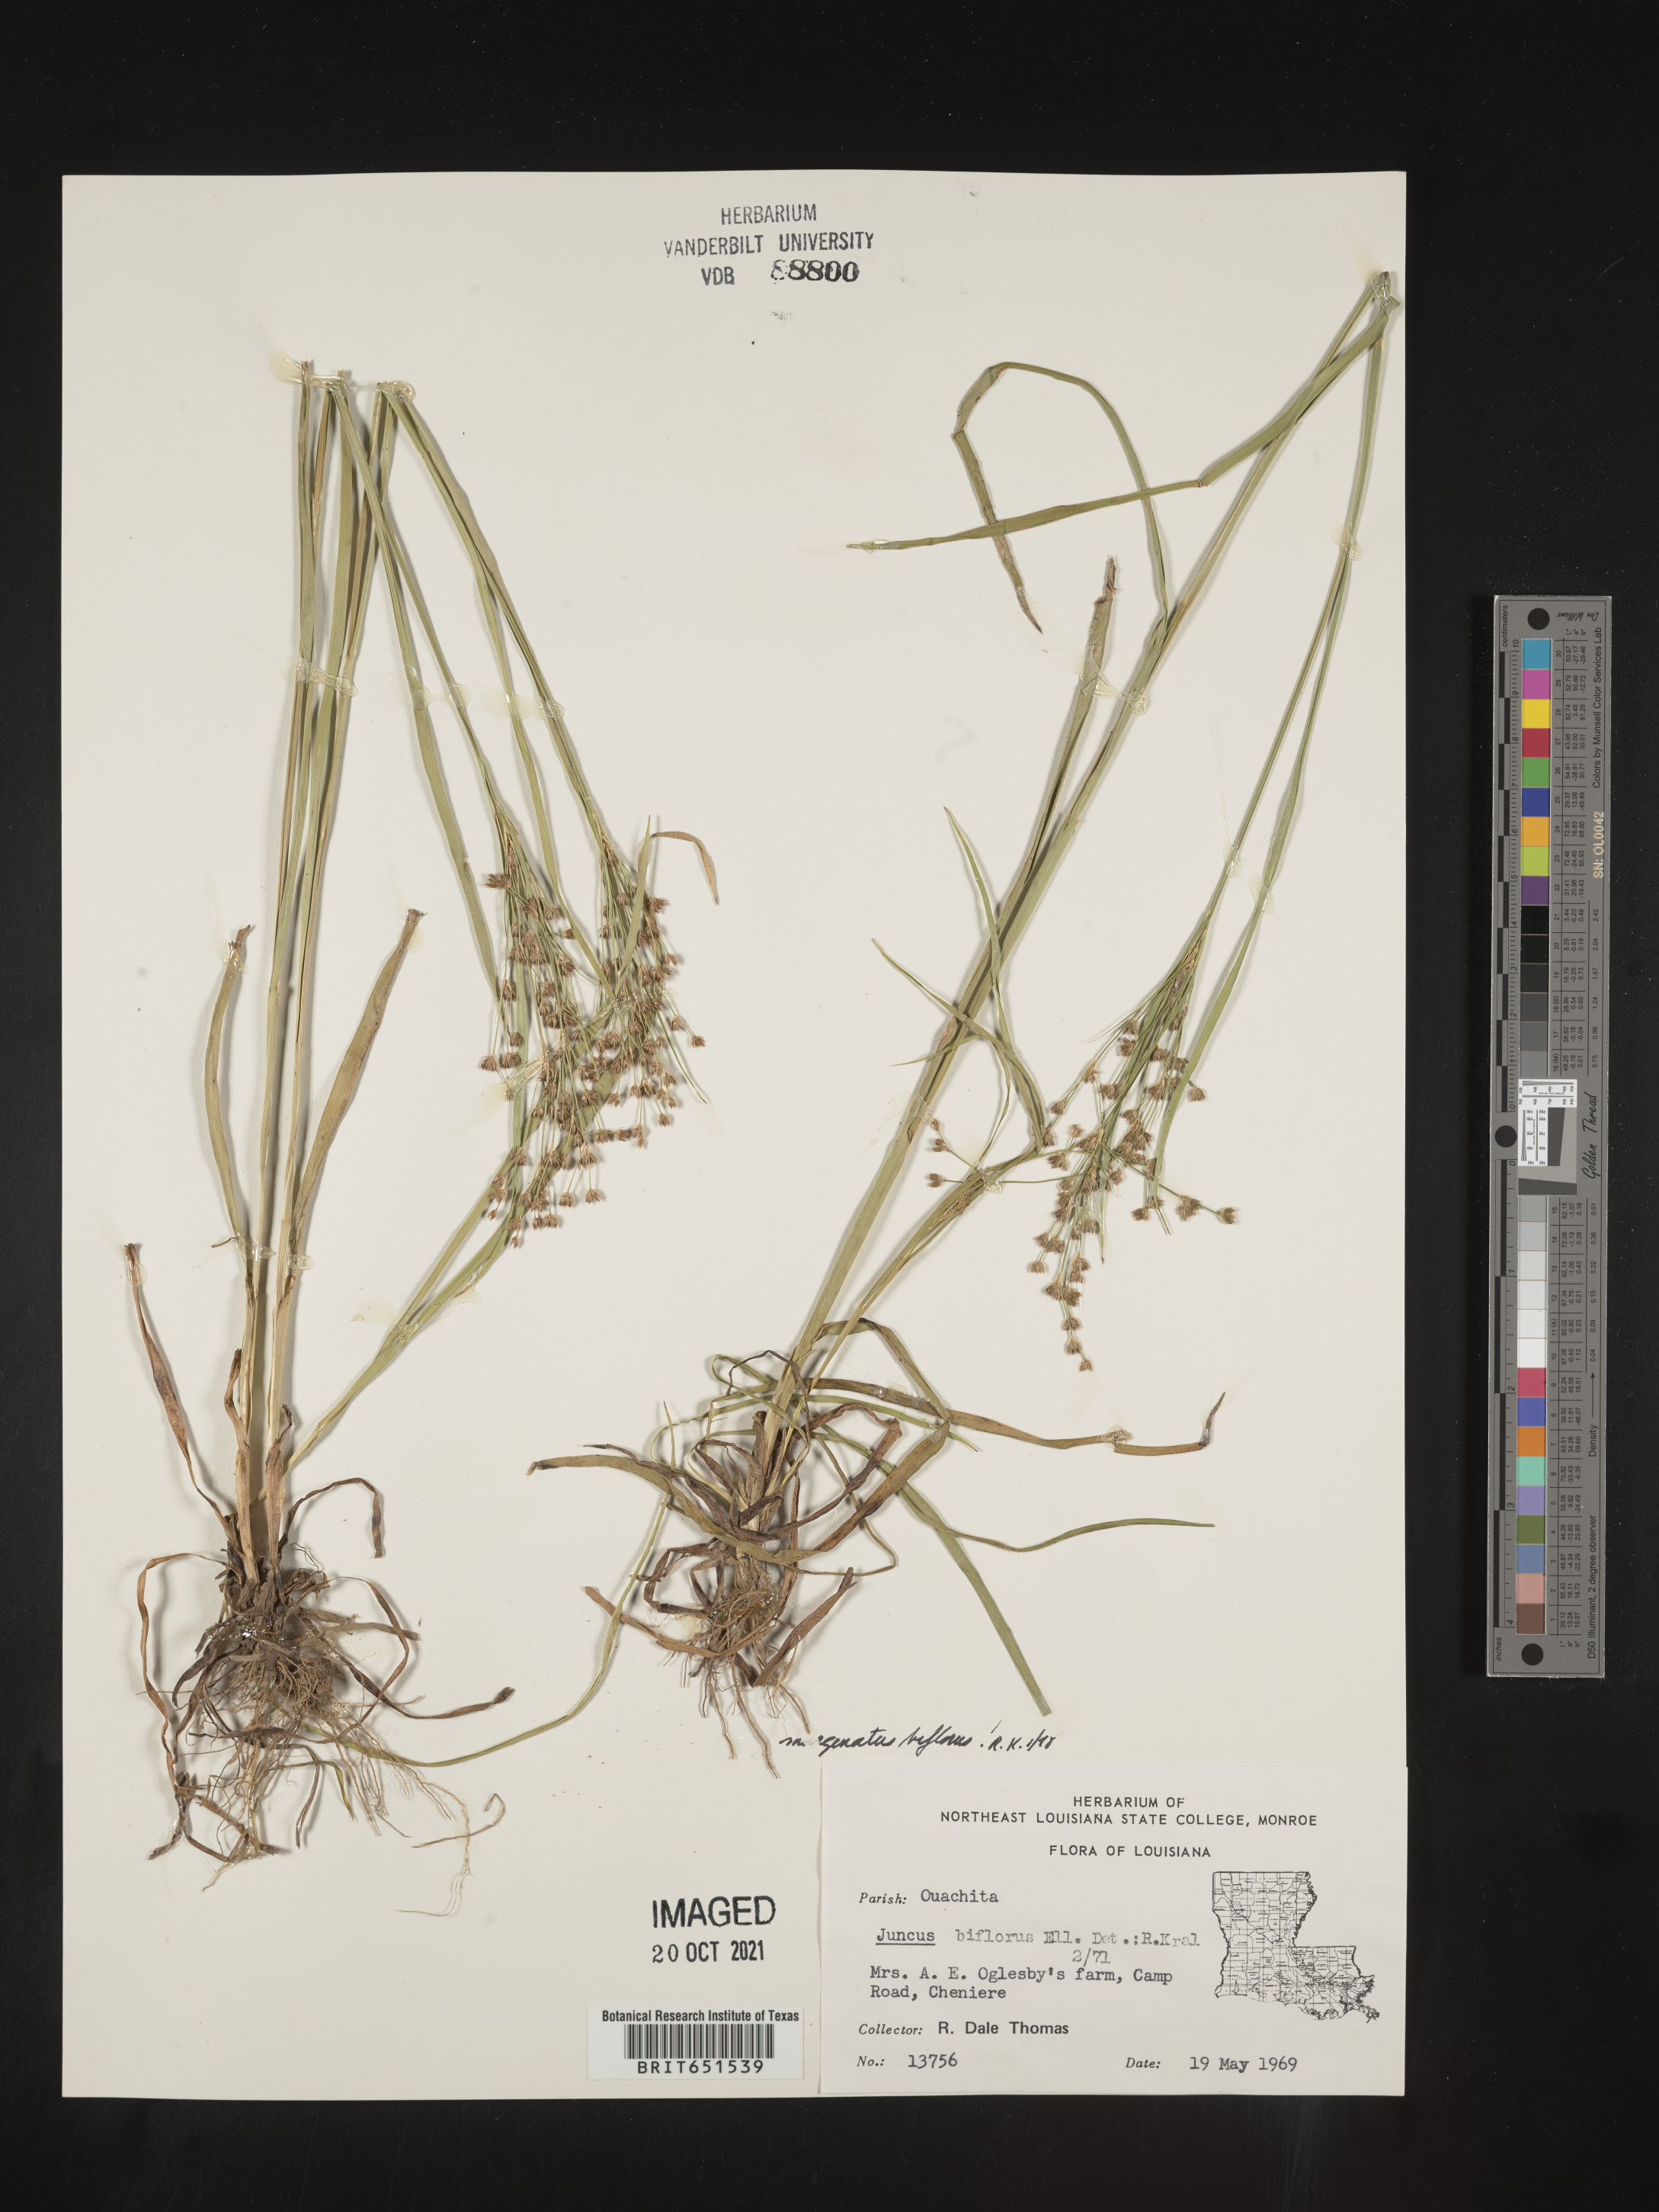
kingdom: Plantae
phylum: Tracheophyta
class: Liliopsida
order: Poales
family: Juncaceae
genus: Juncus
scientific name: Juncus biflorus
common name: Two-flowered rush
